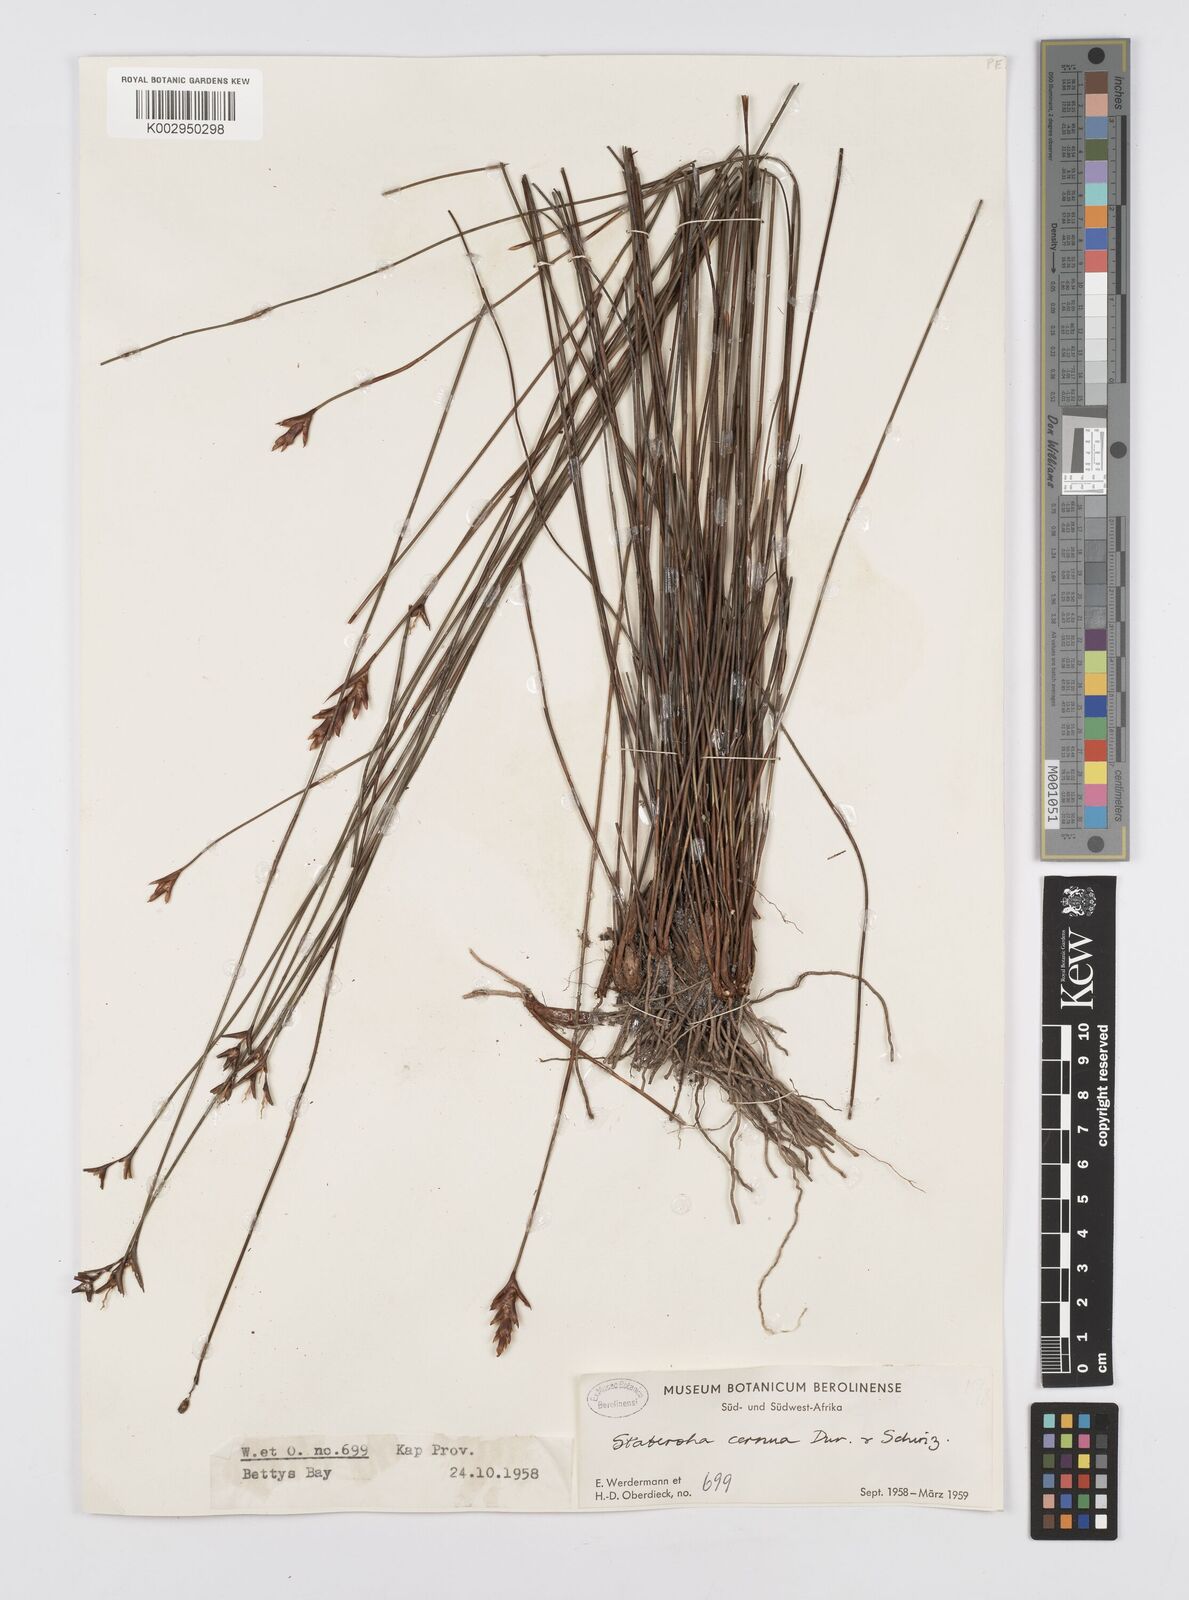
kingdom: Plantae
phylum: Tracheophyta
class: Liliopsida
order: Poales
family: Restionaceae
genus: Staberoha
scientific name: Staberoha cernua
